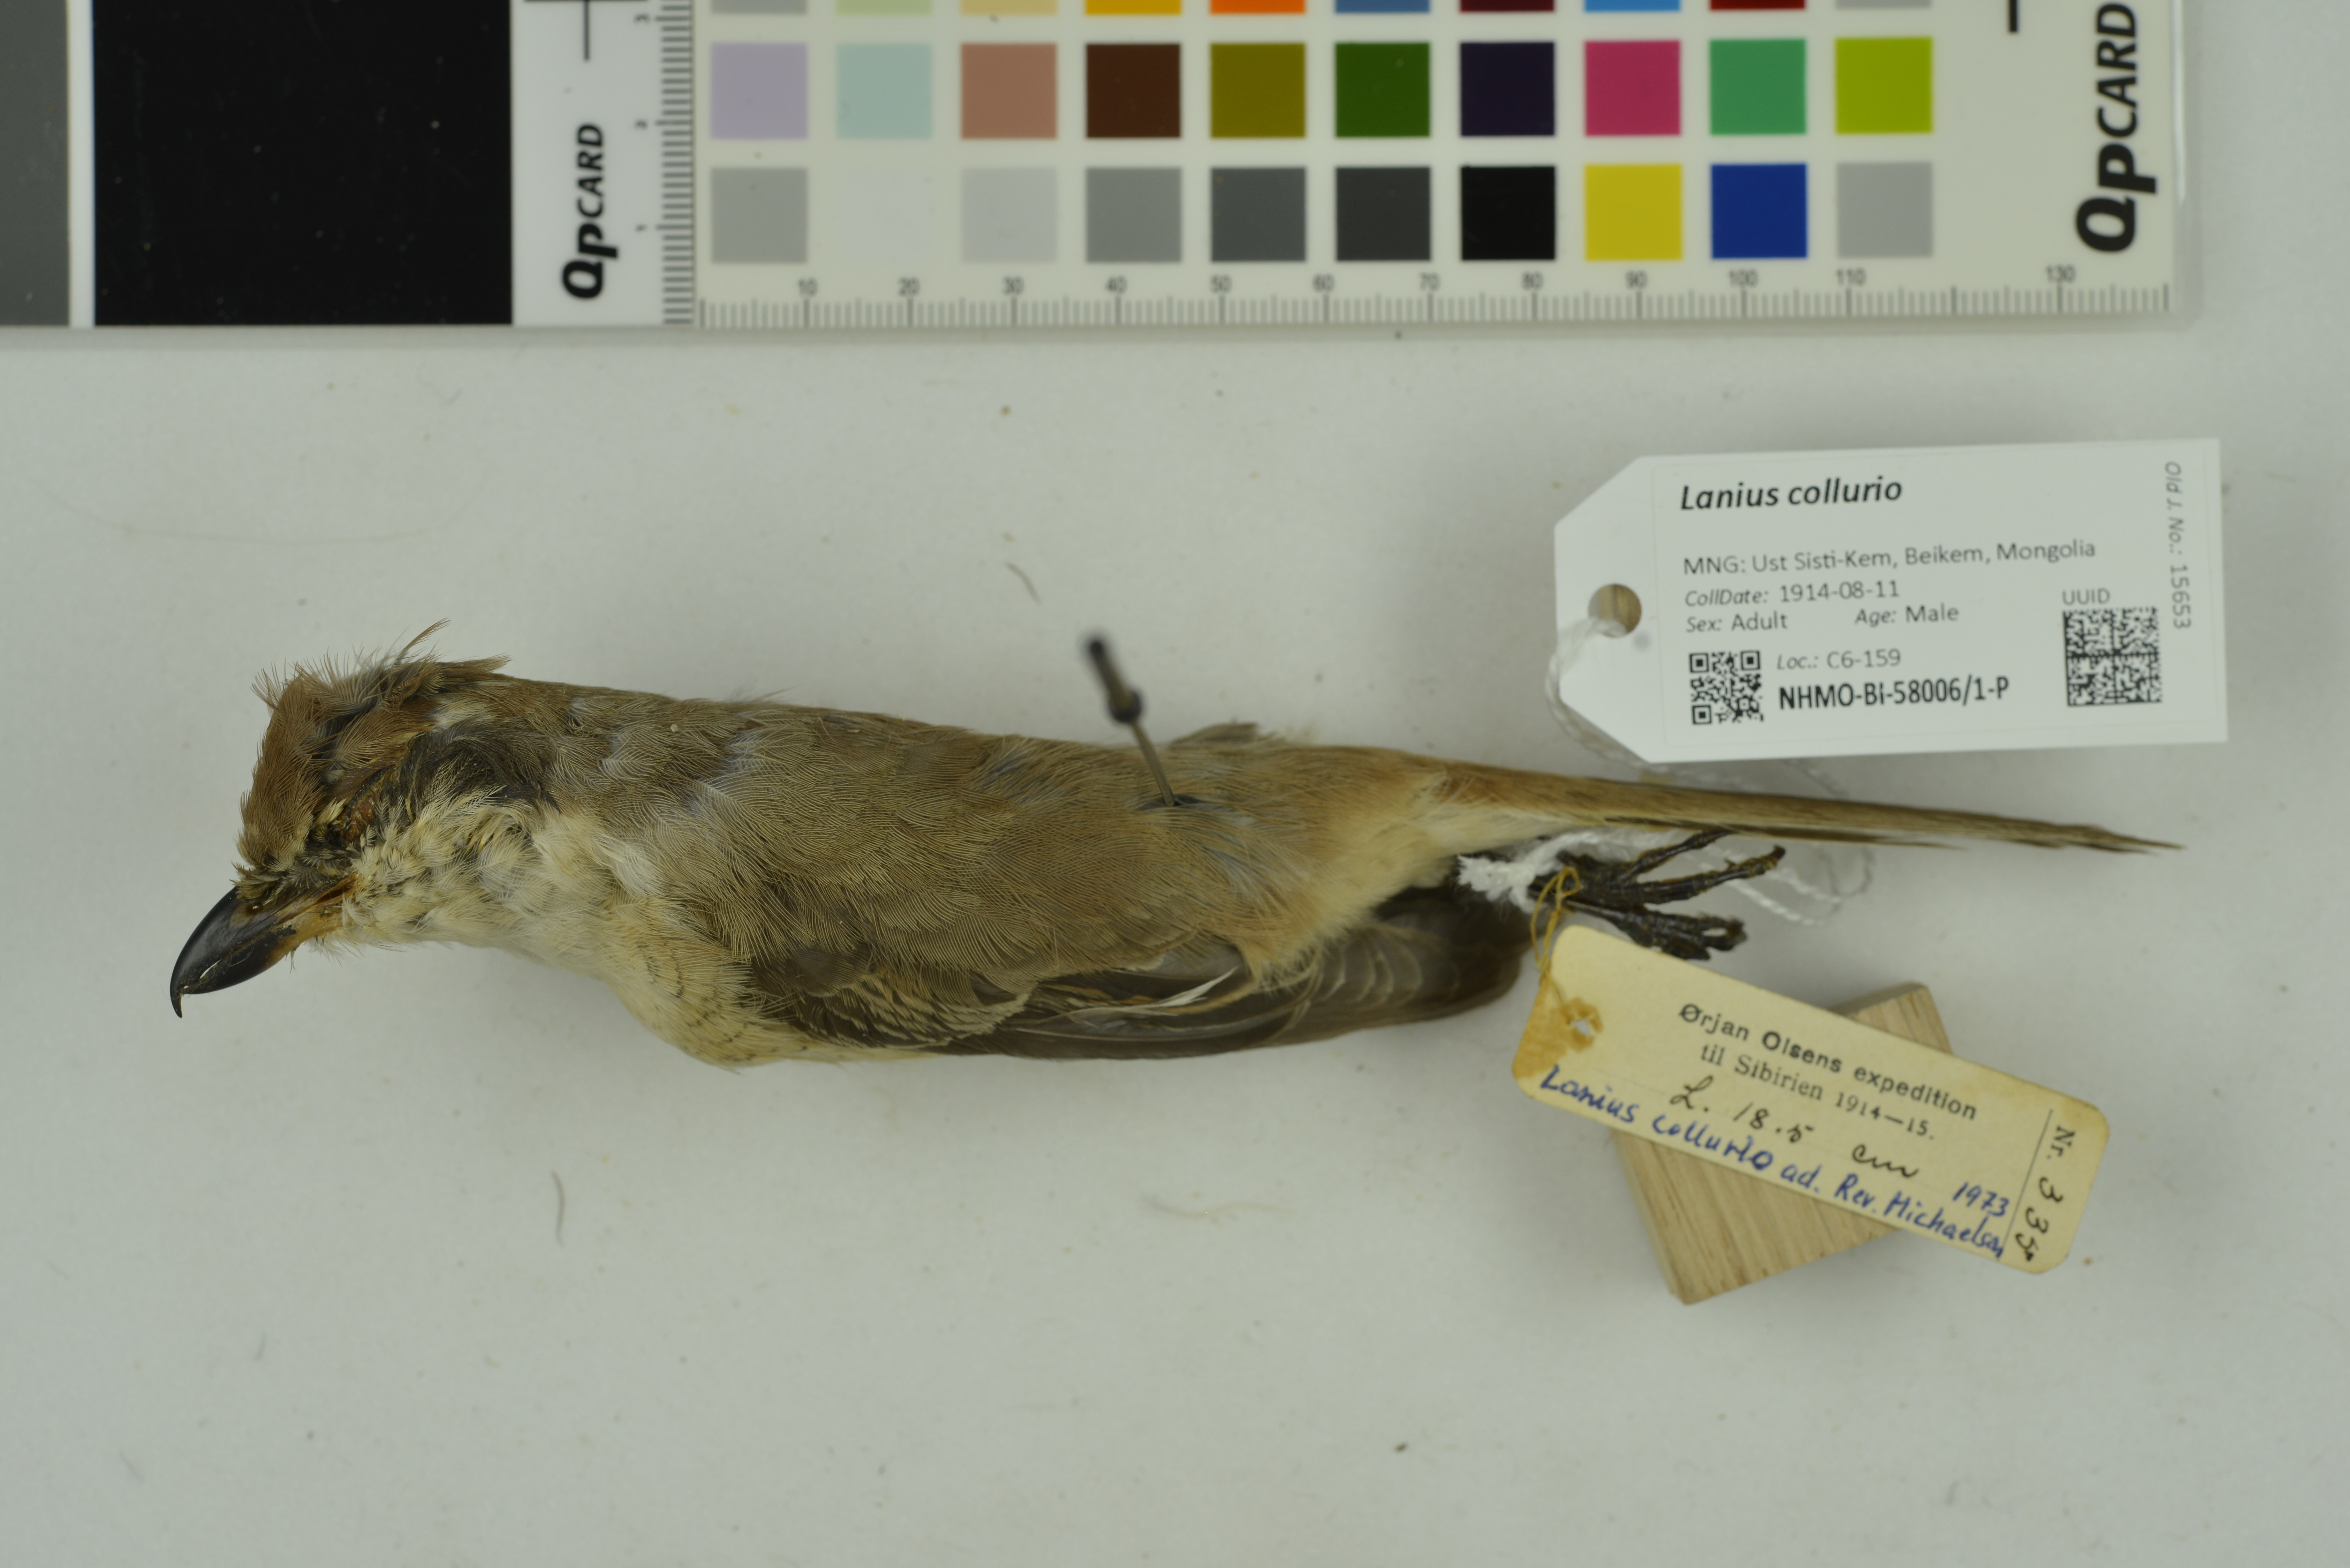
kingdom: Animalia
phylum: Chordata
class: Aves
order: Passeriformes
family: Laniidae
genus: Lanius
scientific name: Lanius collurio
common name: Red-backed shrike
